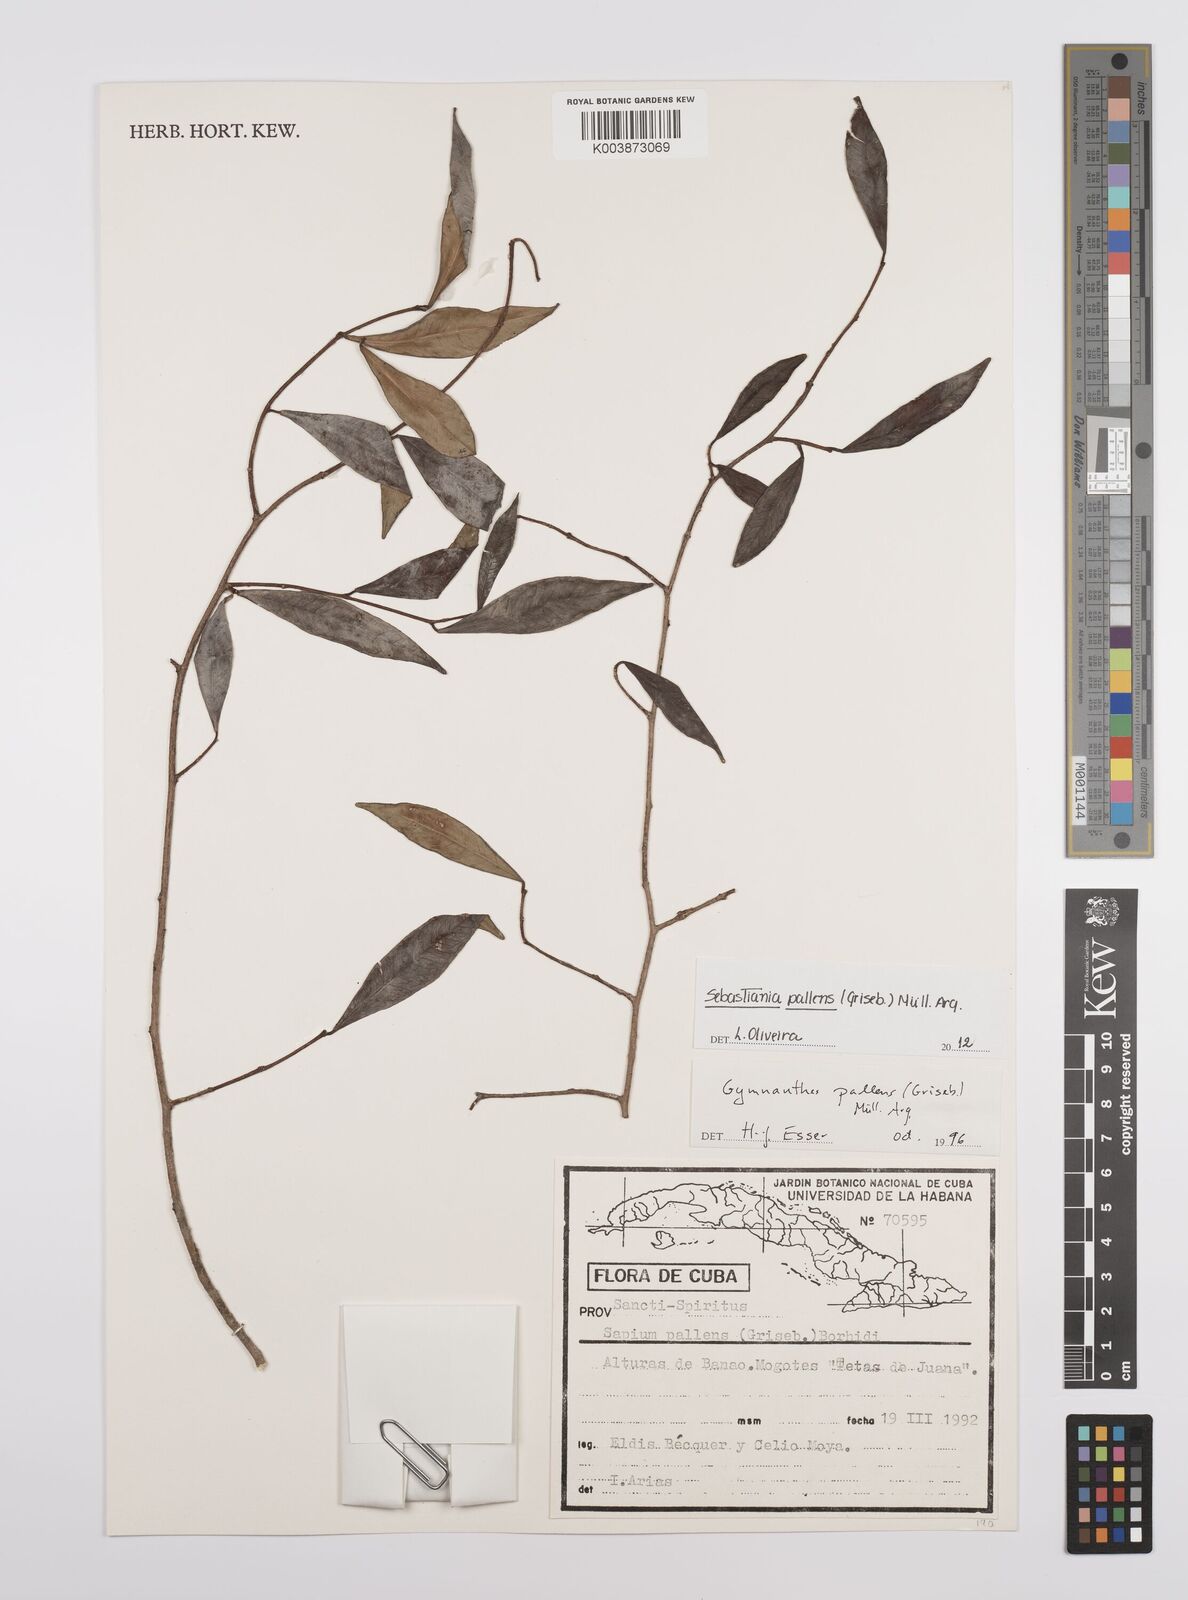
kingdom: Plantae
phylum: Tracheophyta
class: Magnoliopsida
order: Malpighiales
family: Euphorbiaceae
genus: Gymnanthes
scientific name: Gymnanthes pallens
